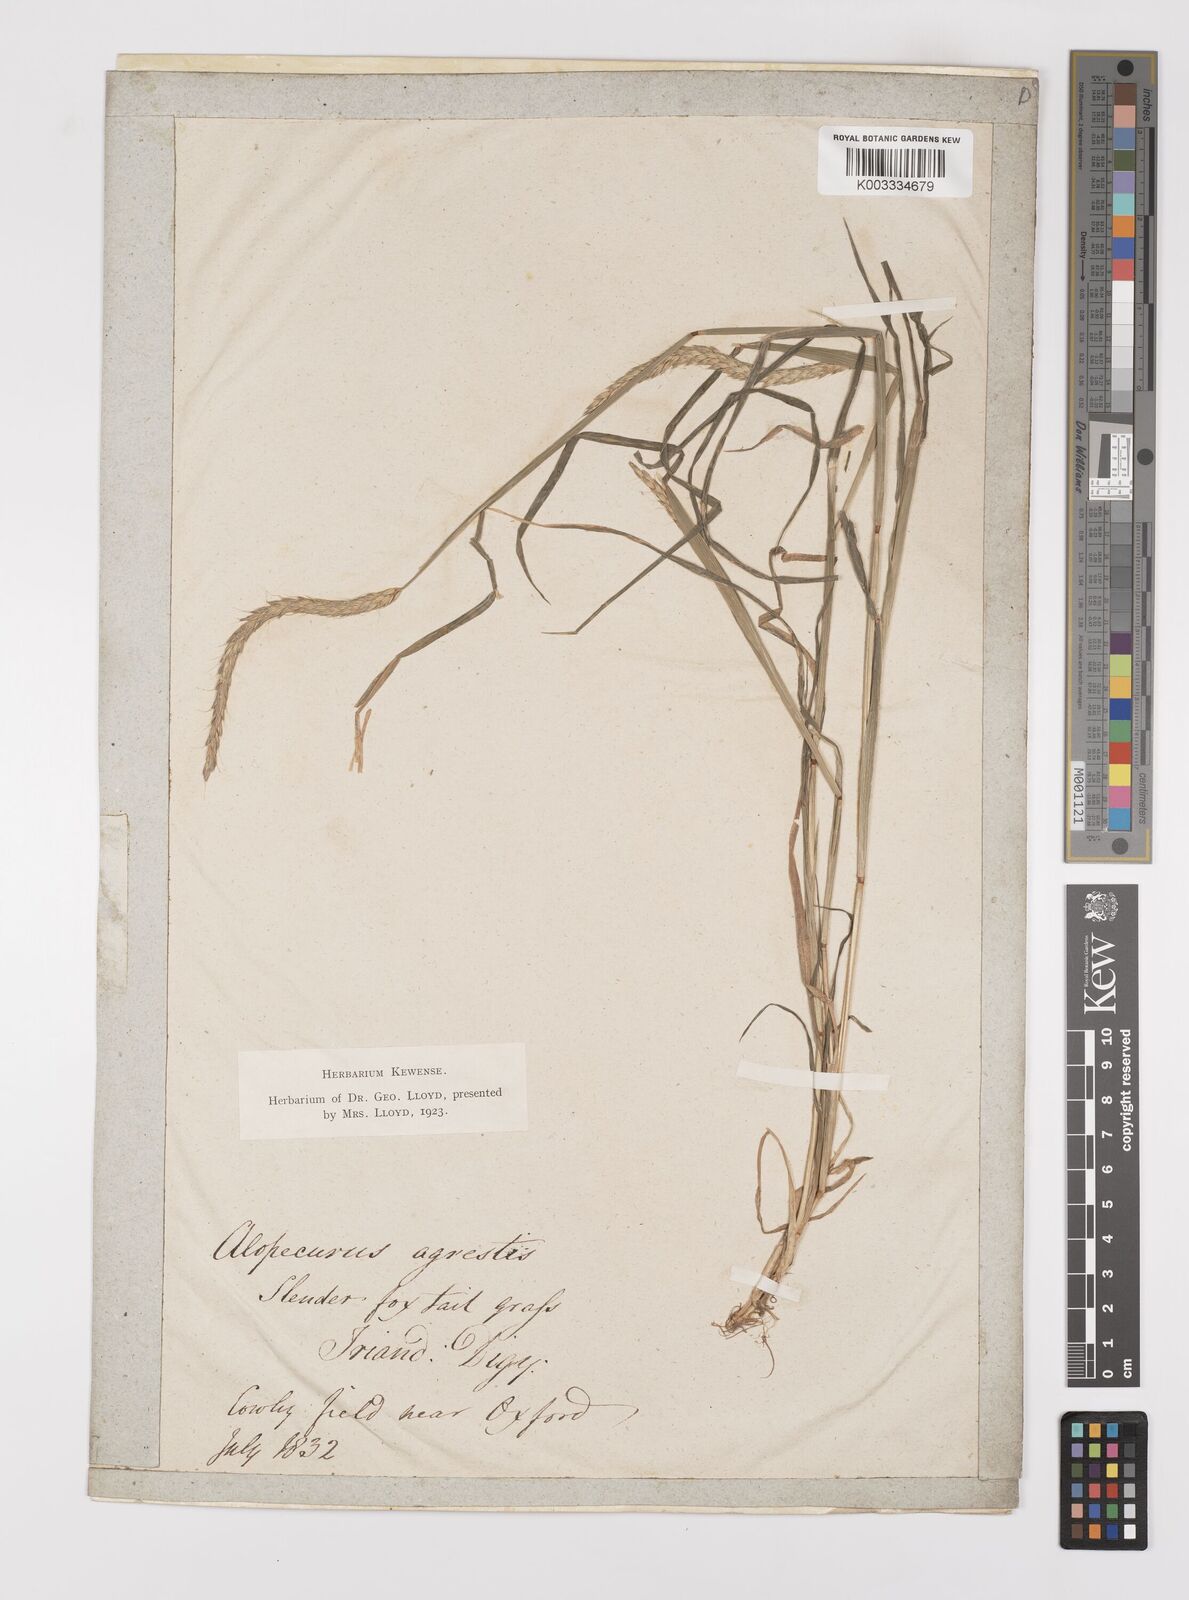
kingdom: Plantae
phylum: Tracheophyta
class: Liliopsida
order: Poales
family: Poaceae
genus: Alopecurus
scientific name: Alopecurus myosuroides
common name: Black-grass
